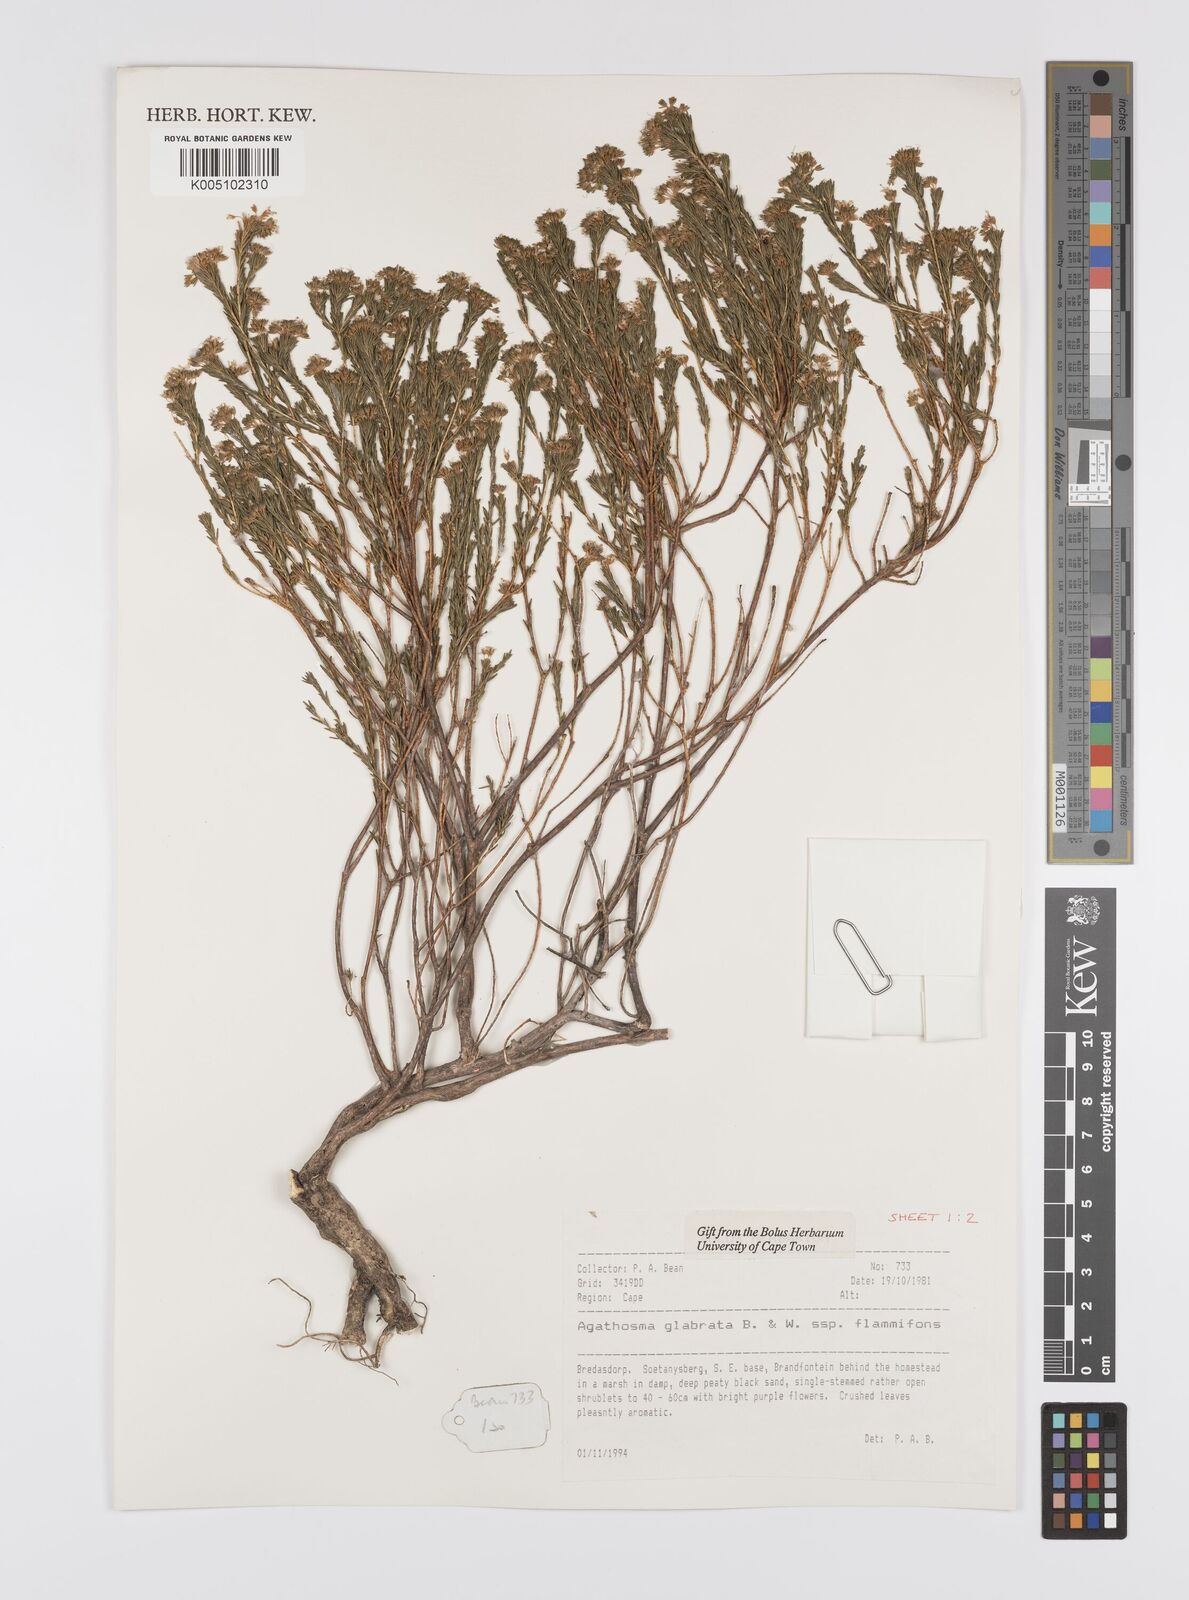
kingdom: Plantae
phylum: Tracheophyta
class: Magnoliopsida
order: Sapindales
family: Rutaceae
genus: Agathosma
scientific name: Agathosma
